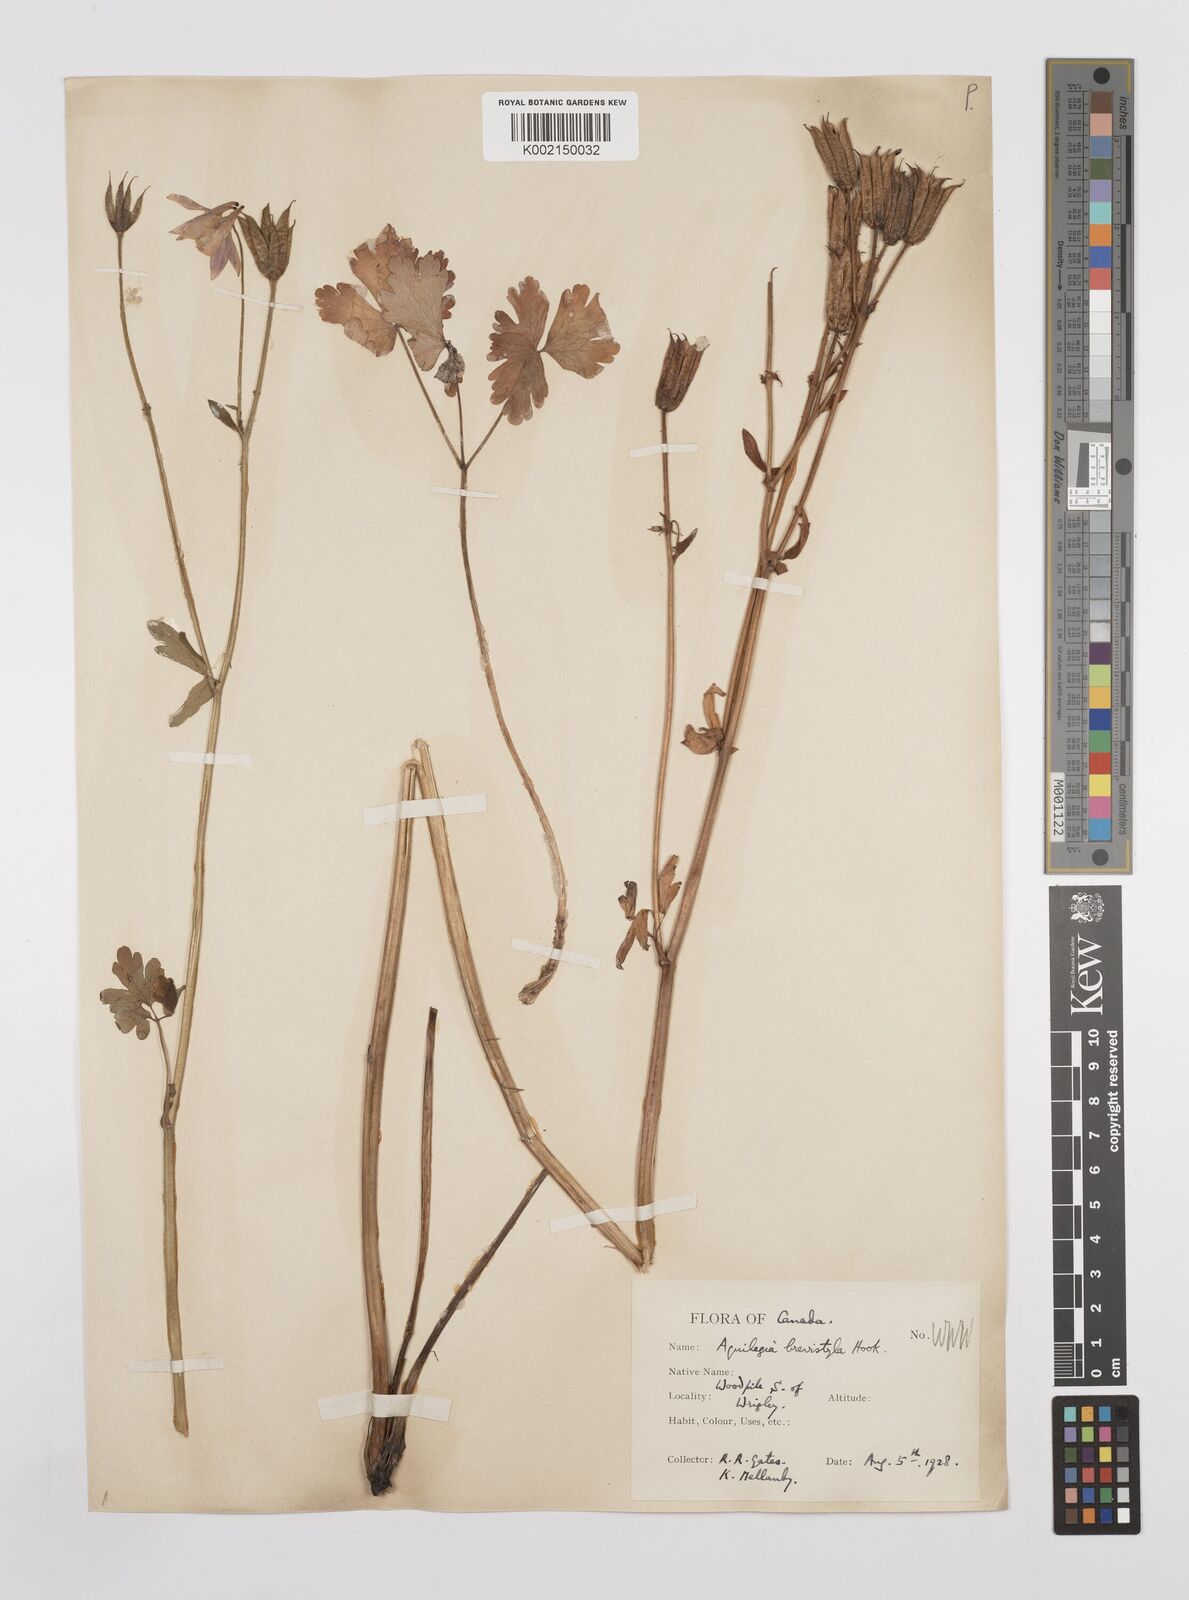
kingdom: Plantae
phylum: Tracheophyta
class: Magnoliopsida
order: Ranunculales
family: Ranunculaceae
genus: Aquilegia
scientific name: Aquilegia brevistyla
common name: Yukon columbine
